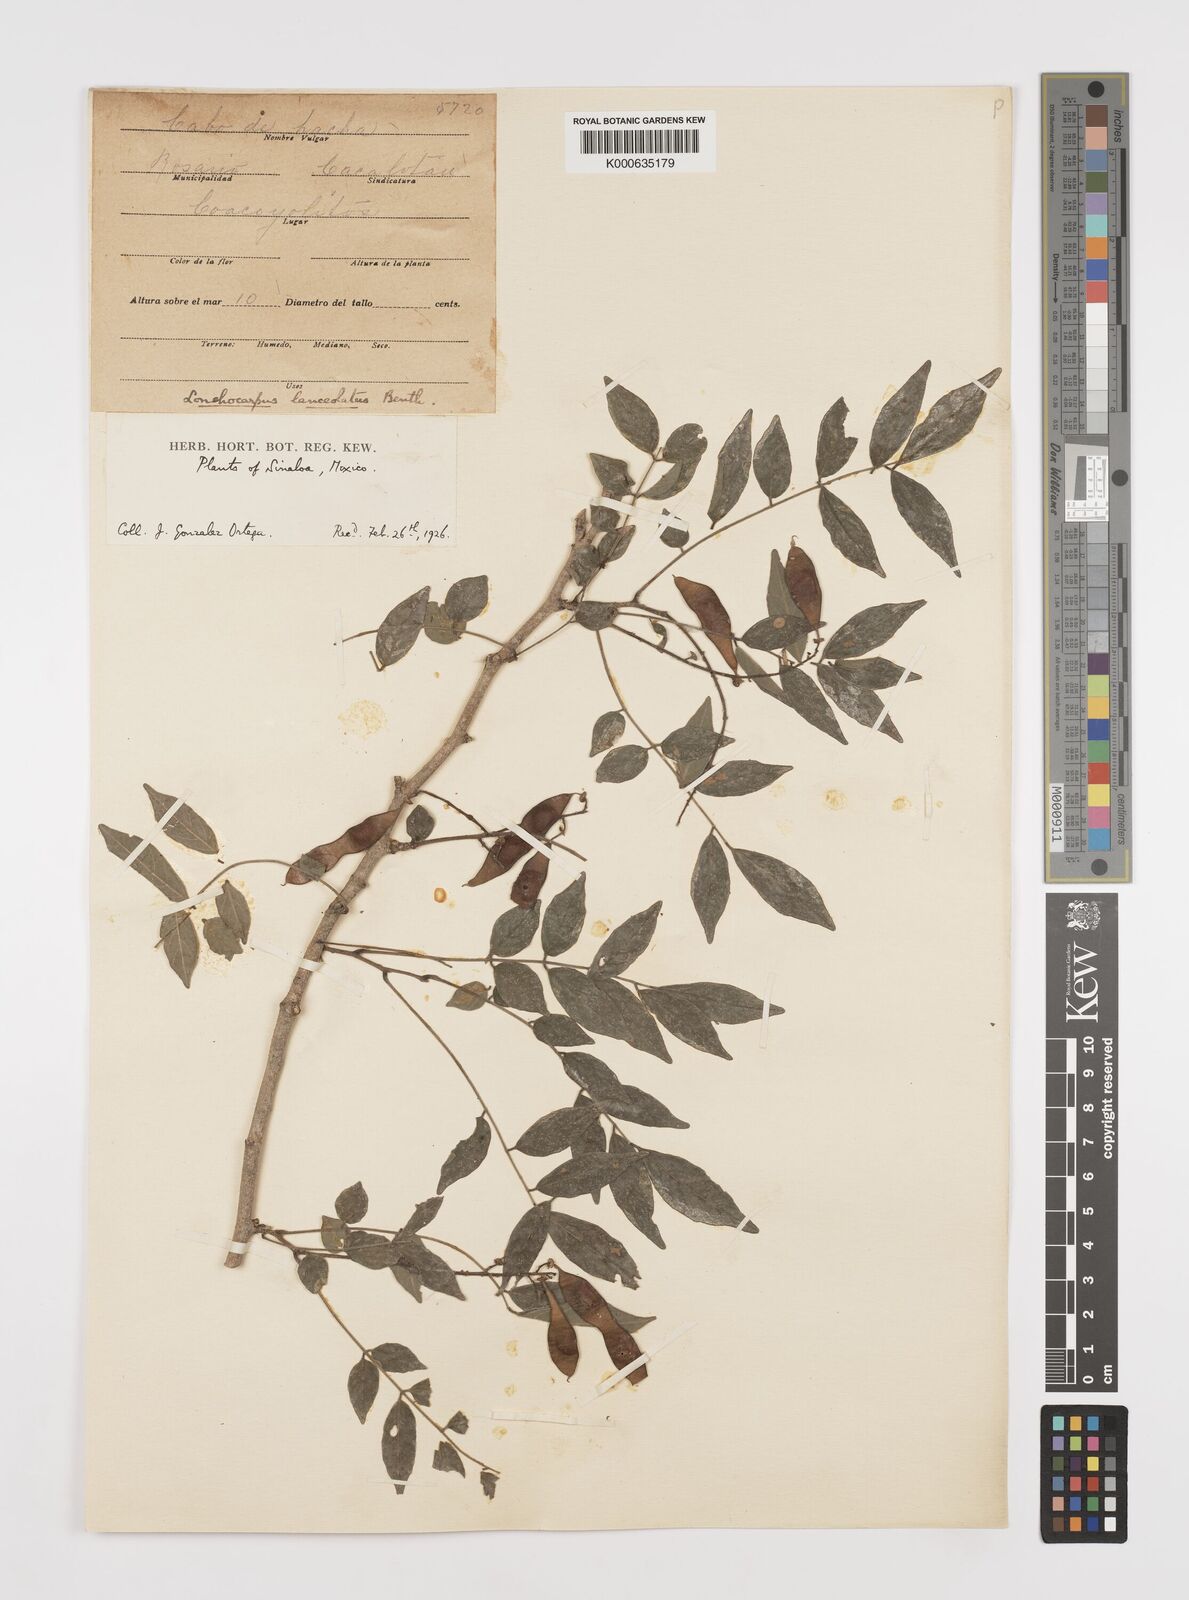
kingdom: Plantae
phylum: Tracheophyta
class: Magnoliopsida
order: Fabales
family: Fabaceae
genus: Lonchocarpus
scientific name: Lonchocarpus lanceolatus
